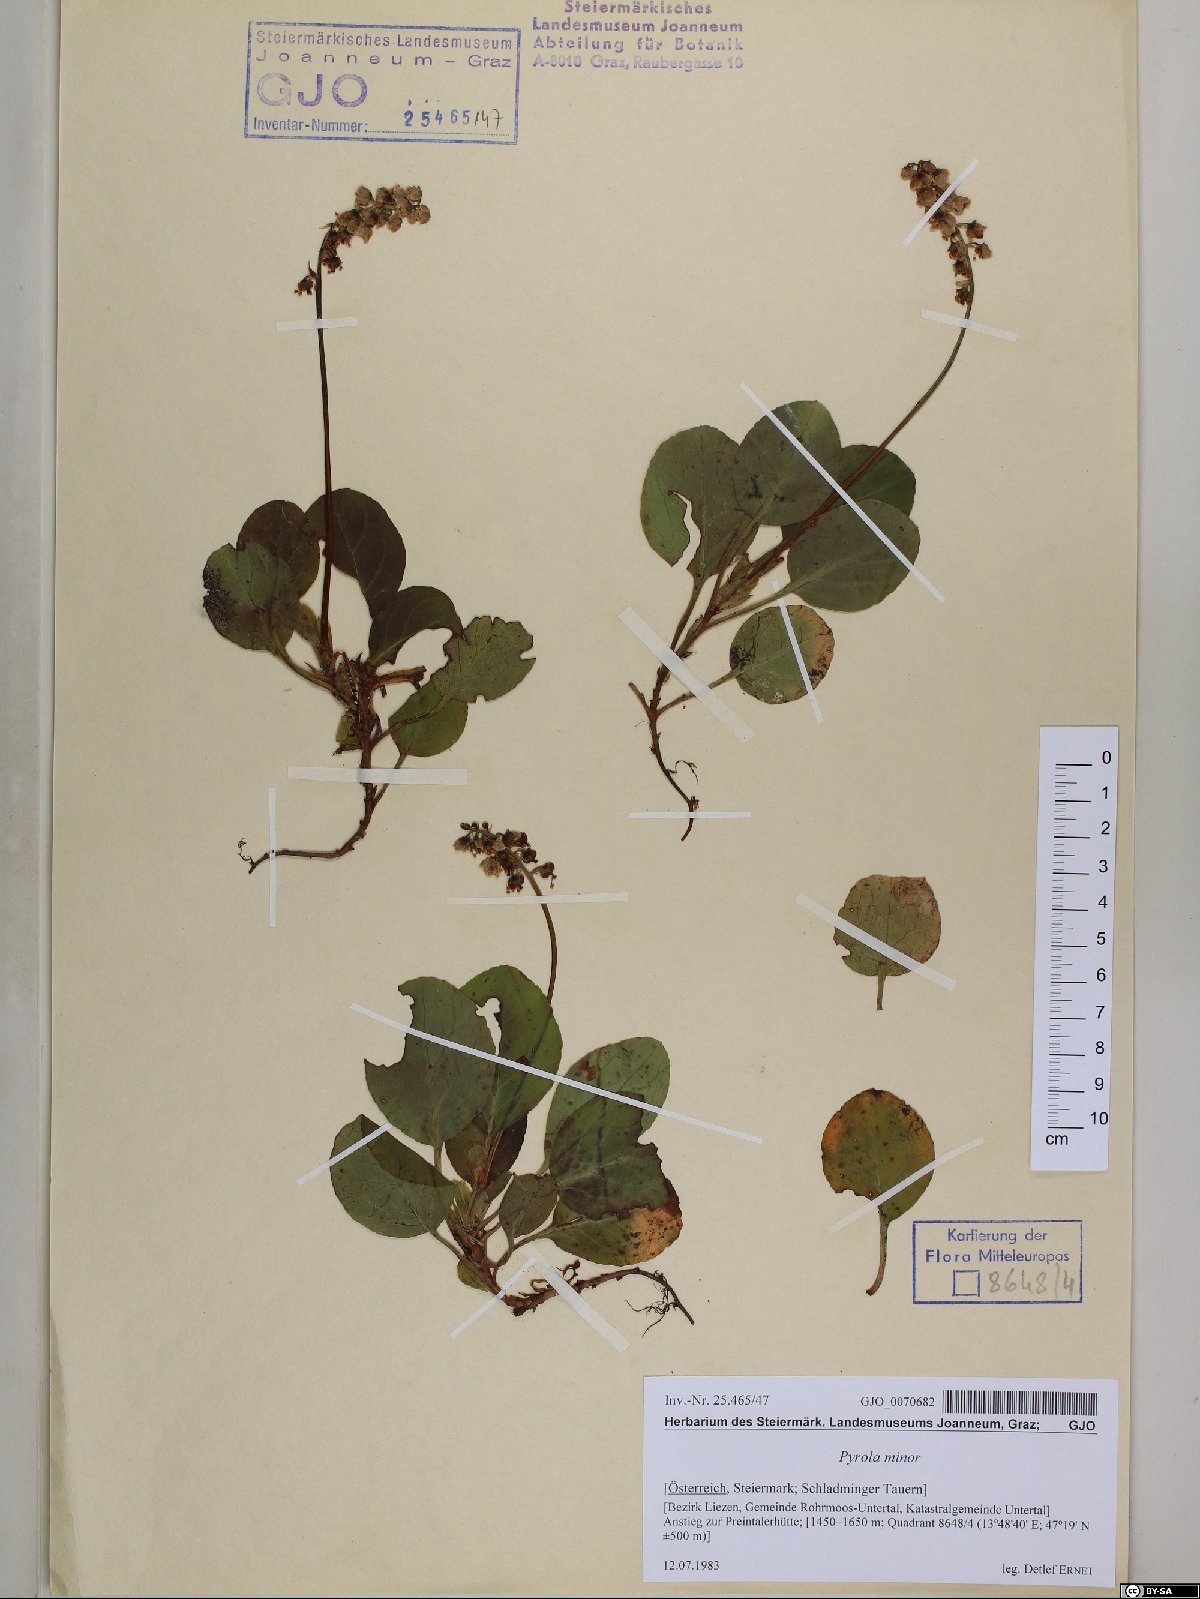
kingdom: Plantae
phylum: Tracheophyta
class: Magnoliopsida
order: Ericales
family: Ericaceae
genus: Pyrola
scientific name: Pyrola minor
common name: Common wintergreen
